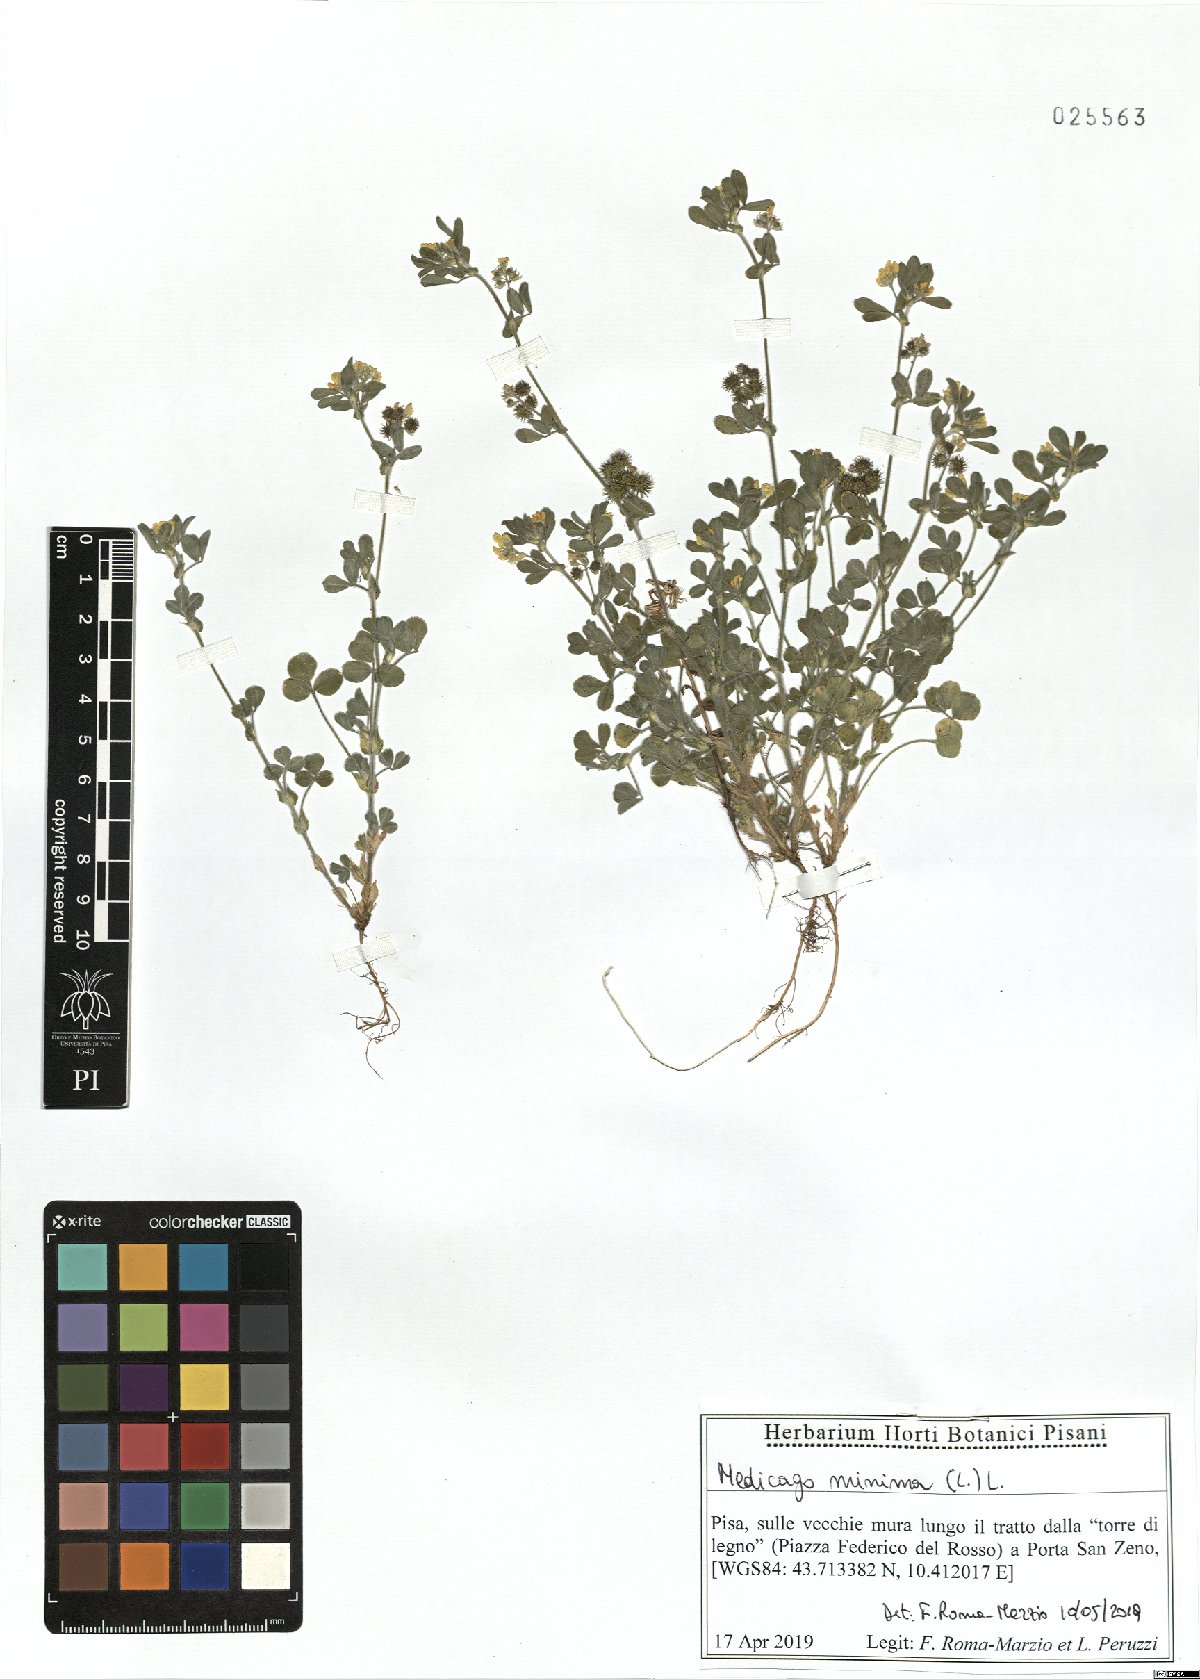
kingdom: Plantae
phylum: Tracheophyta
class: Magnoliopsida
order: Fabales
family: Fabaceae
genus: Medicago
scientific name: Medicago minima
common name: Little bur-clover
